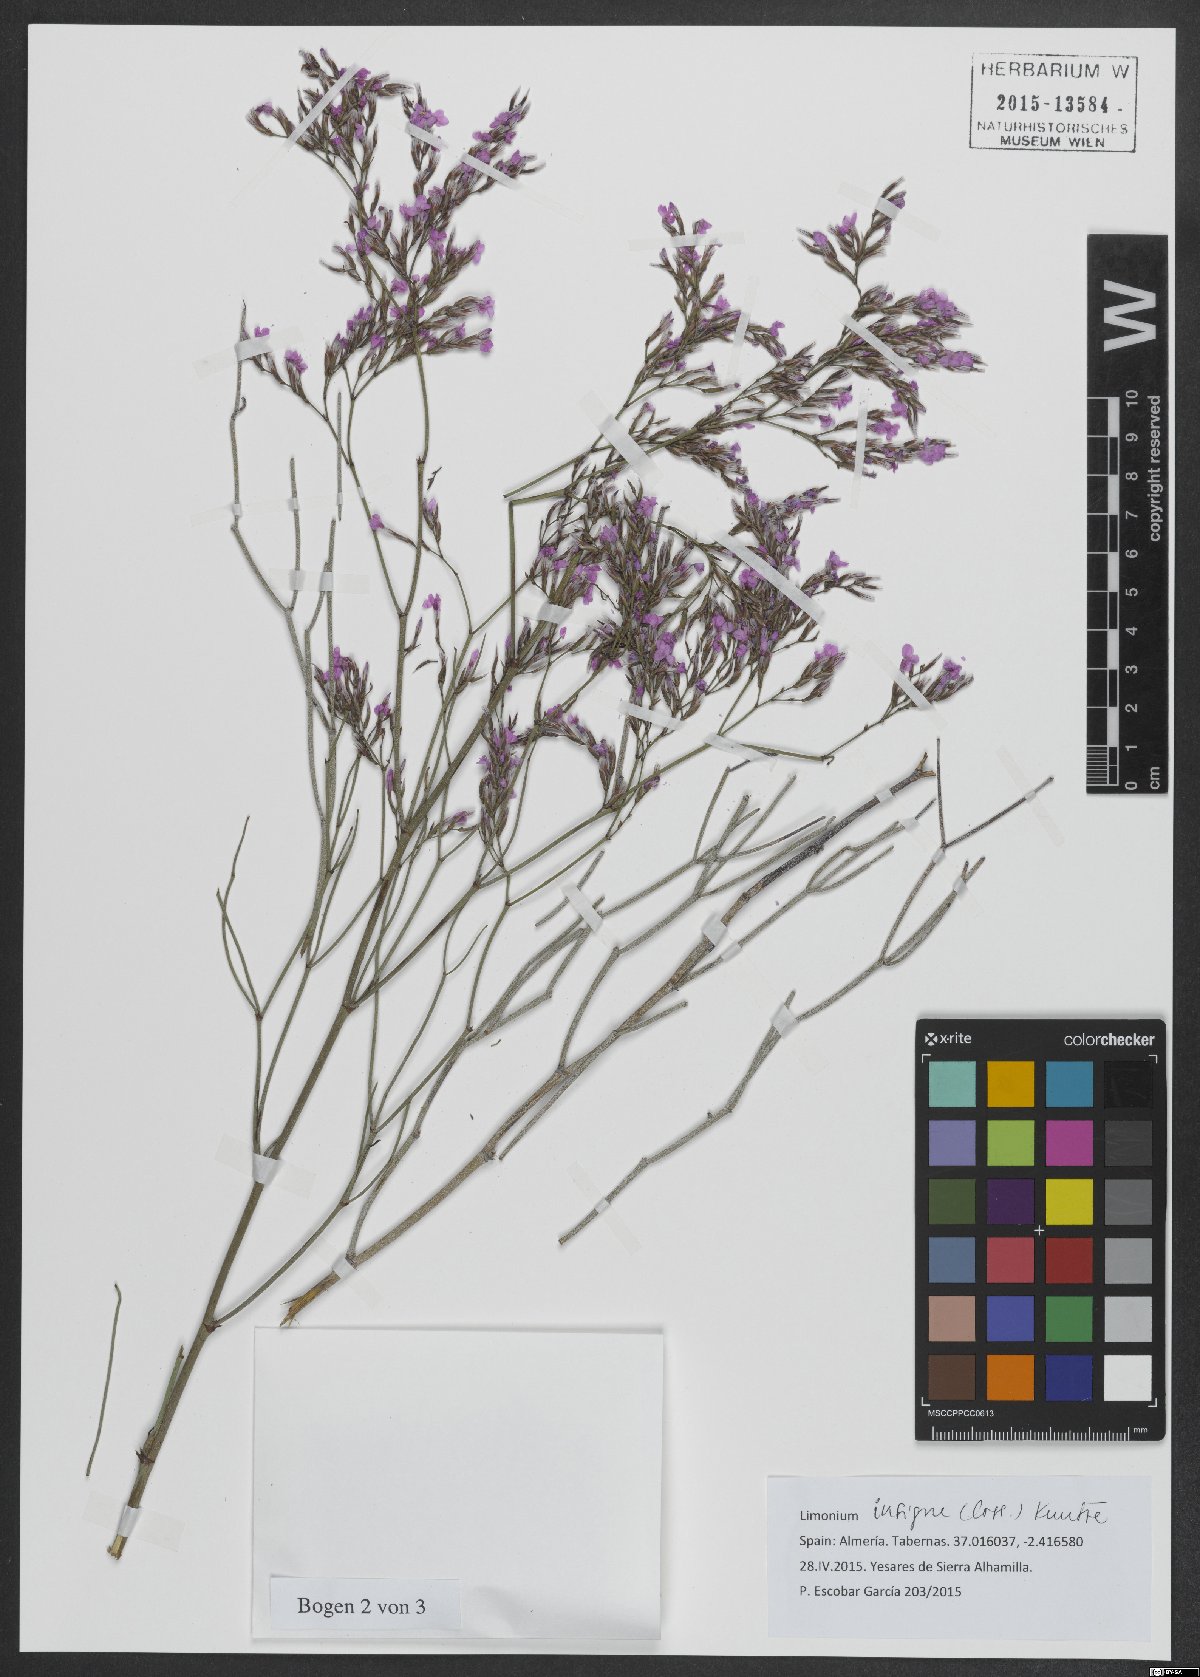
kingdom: Plantae
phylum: Tracheophyta
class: Magnoliopsida
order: Caryophyllales
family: Plumbaginaceae
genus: Limonium
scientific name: Limonium insigne
